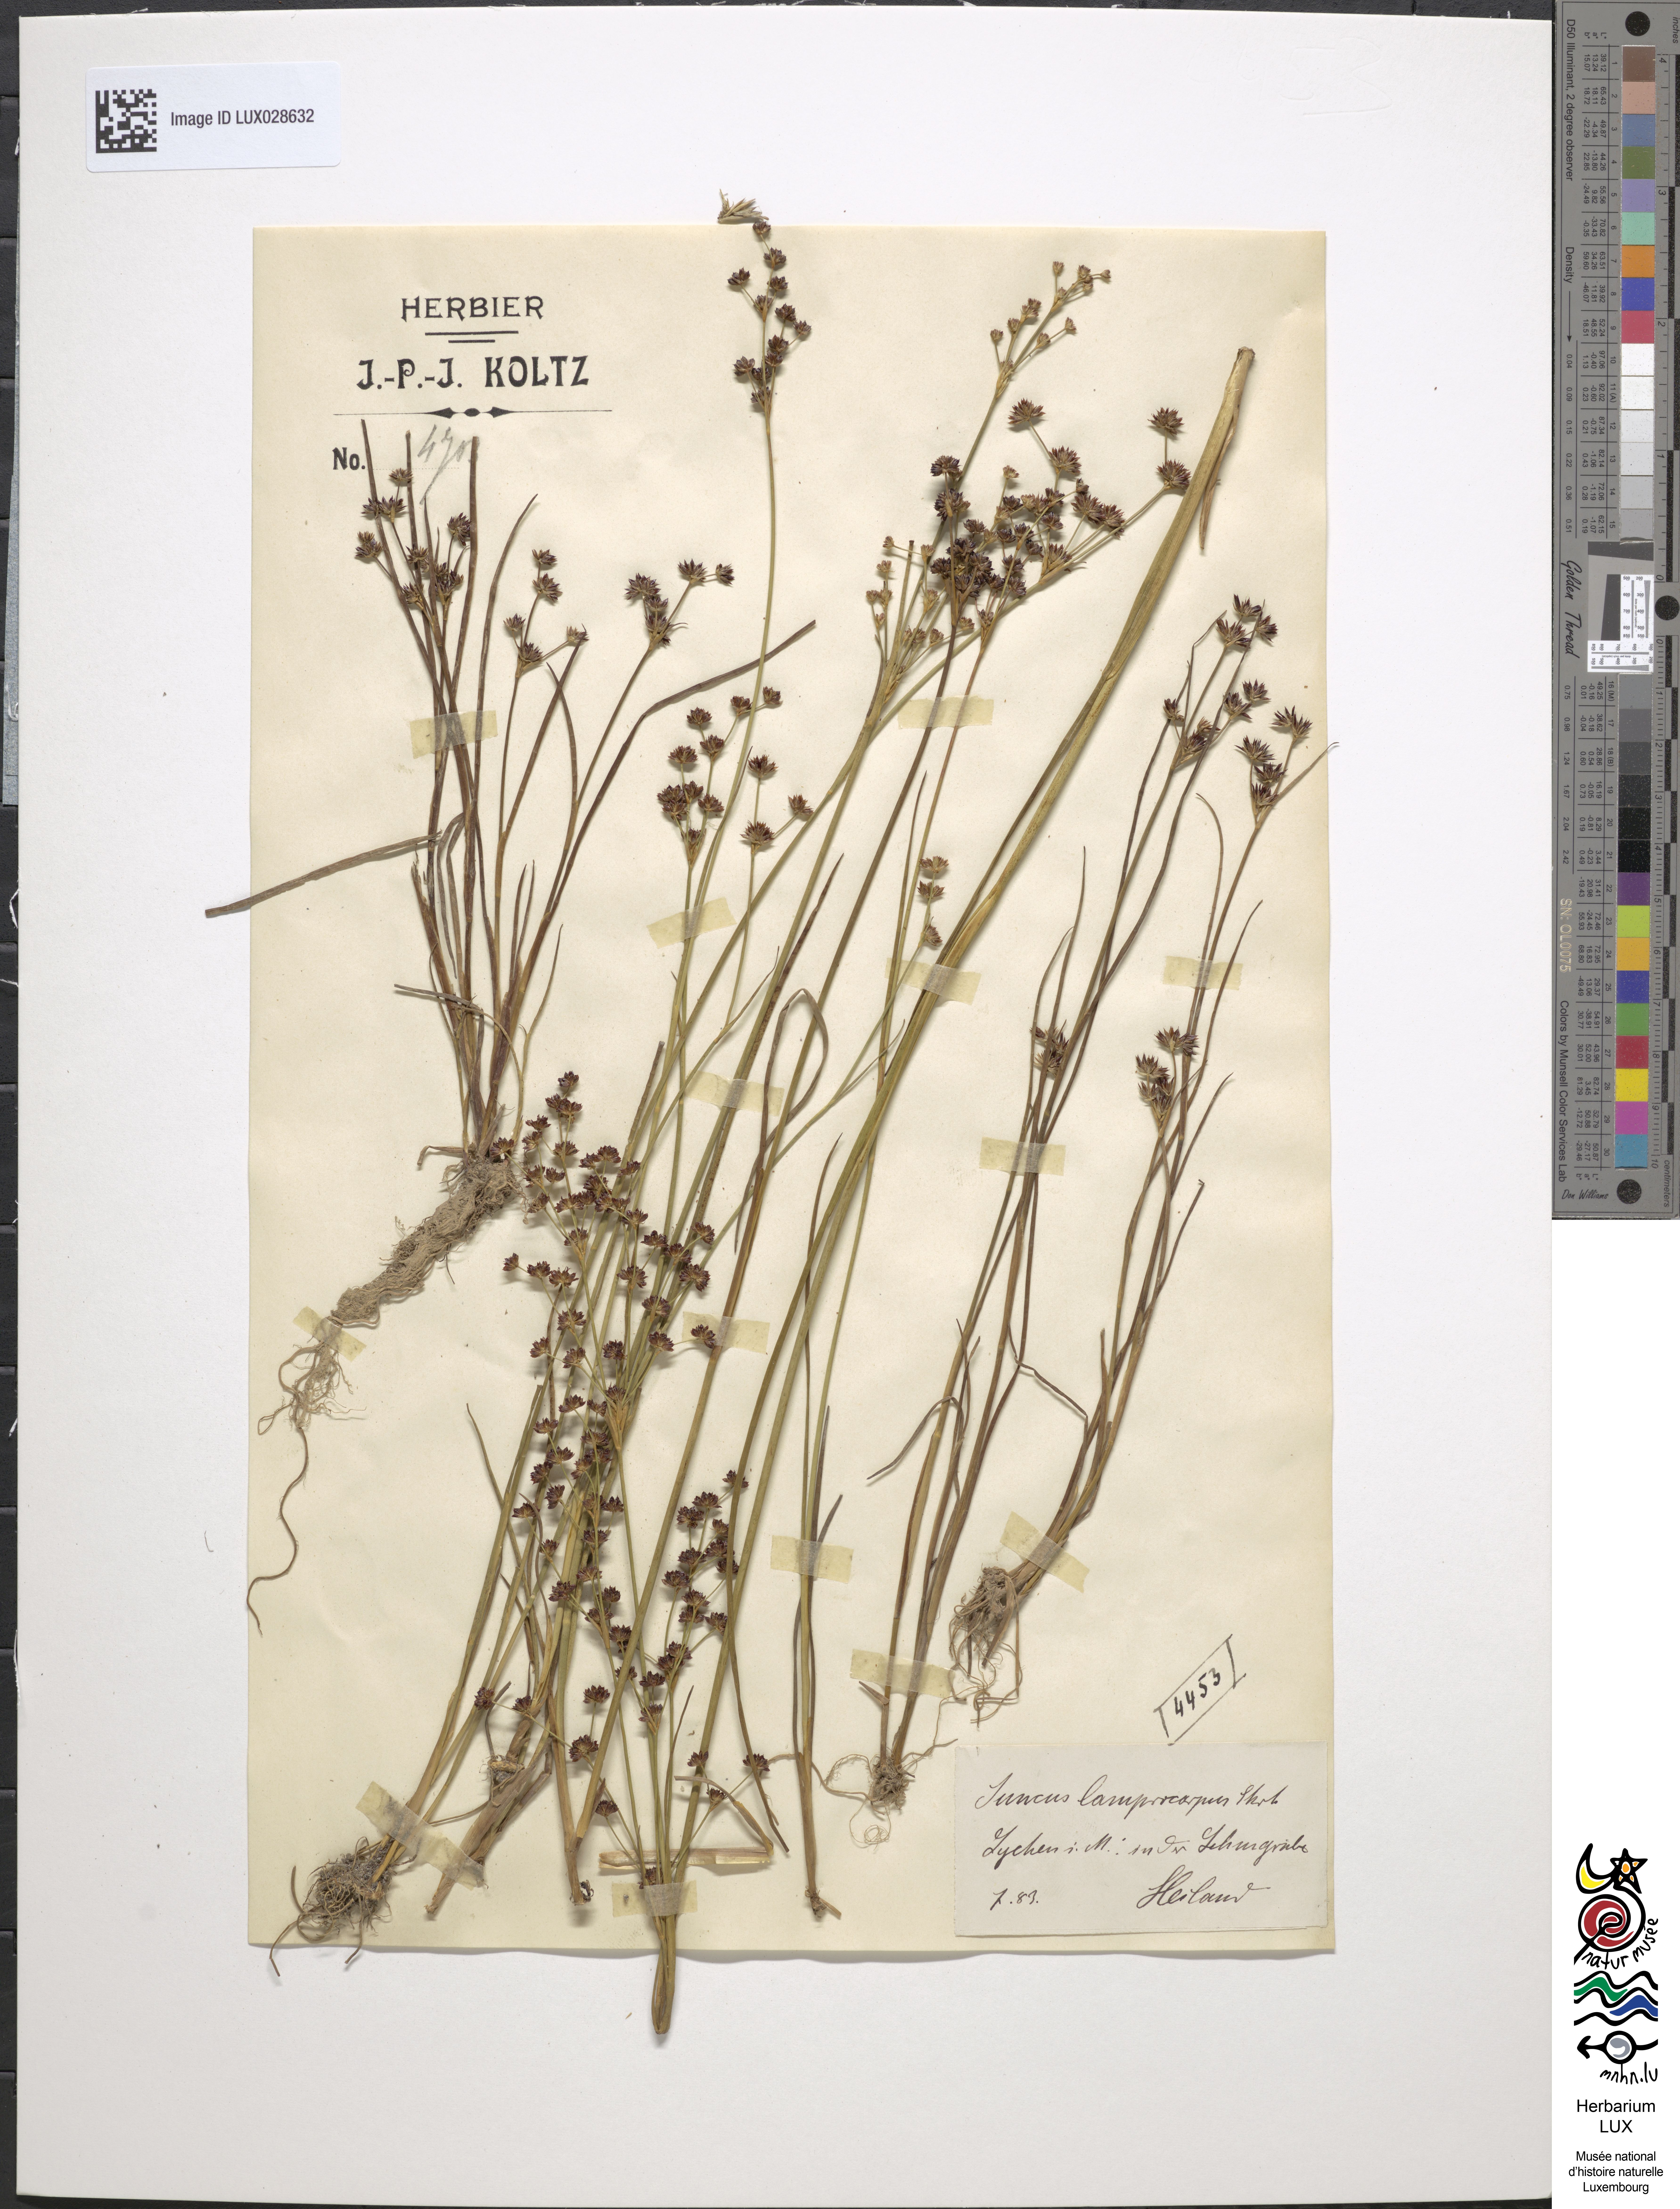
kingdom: Plantae
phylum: Tracheophyta
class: Liliopsida
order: Poales
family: Juncaceae
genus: Juncus
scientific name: Juncus articulatus
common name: Jointed rush
